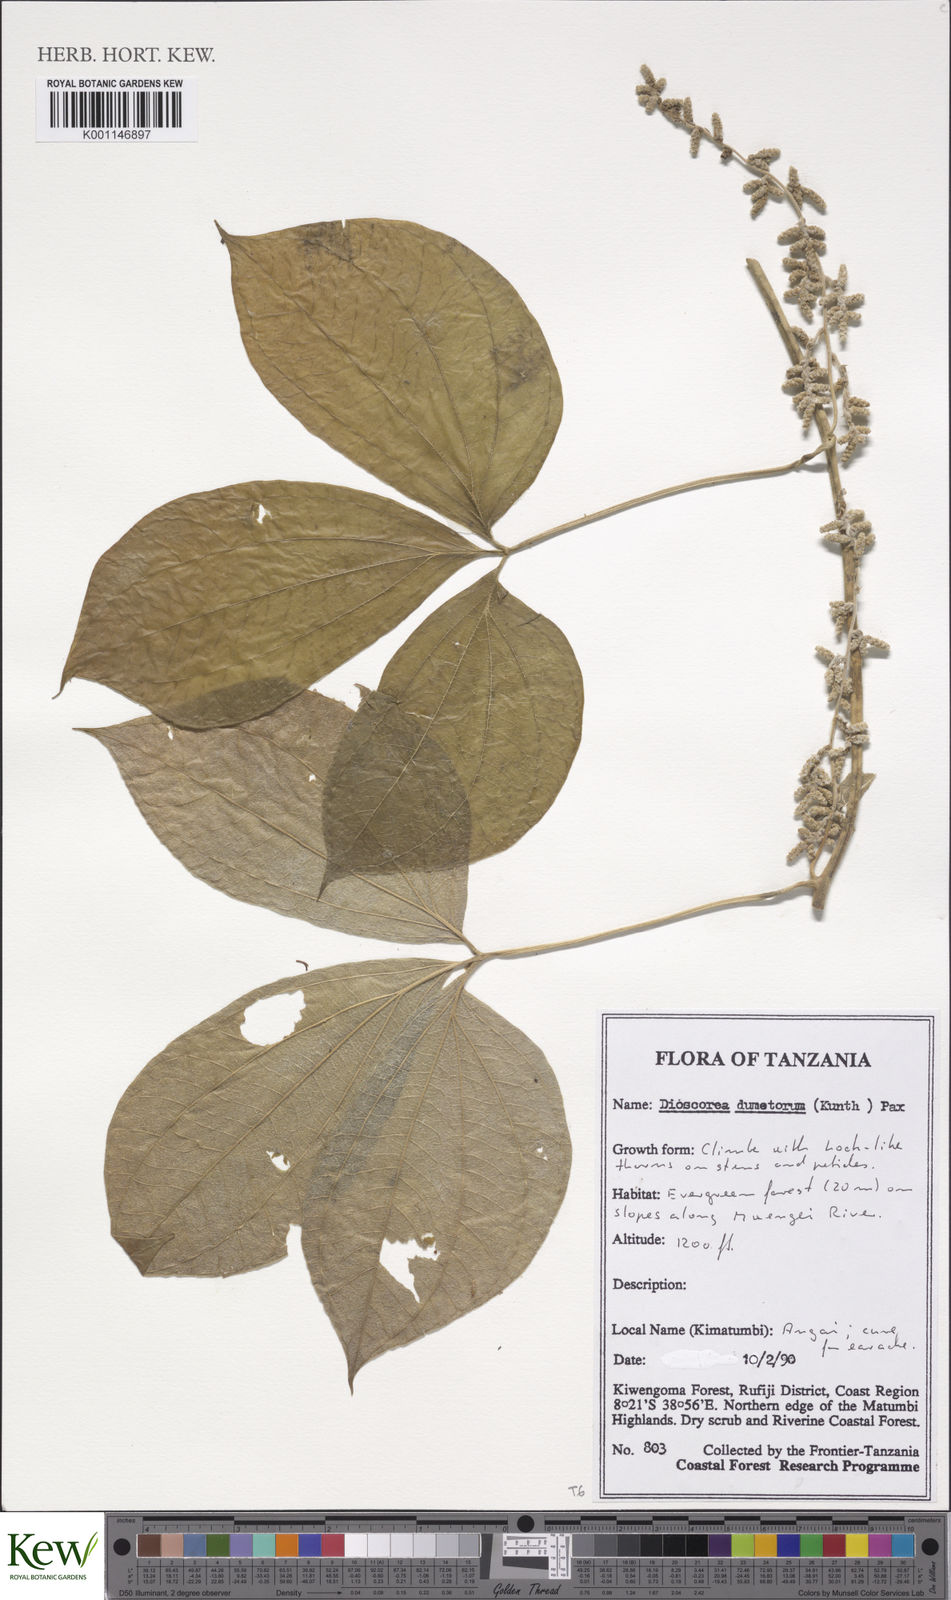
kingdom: Plantae
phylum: Tracheophyta
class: Liliopsida
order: Dioscoreales
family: Dioscoreaceae
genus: Dioscorea
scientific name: Dioscorea dumetorum
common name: African bitter yam
